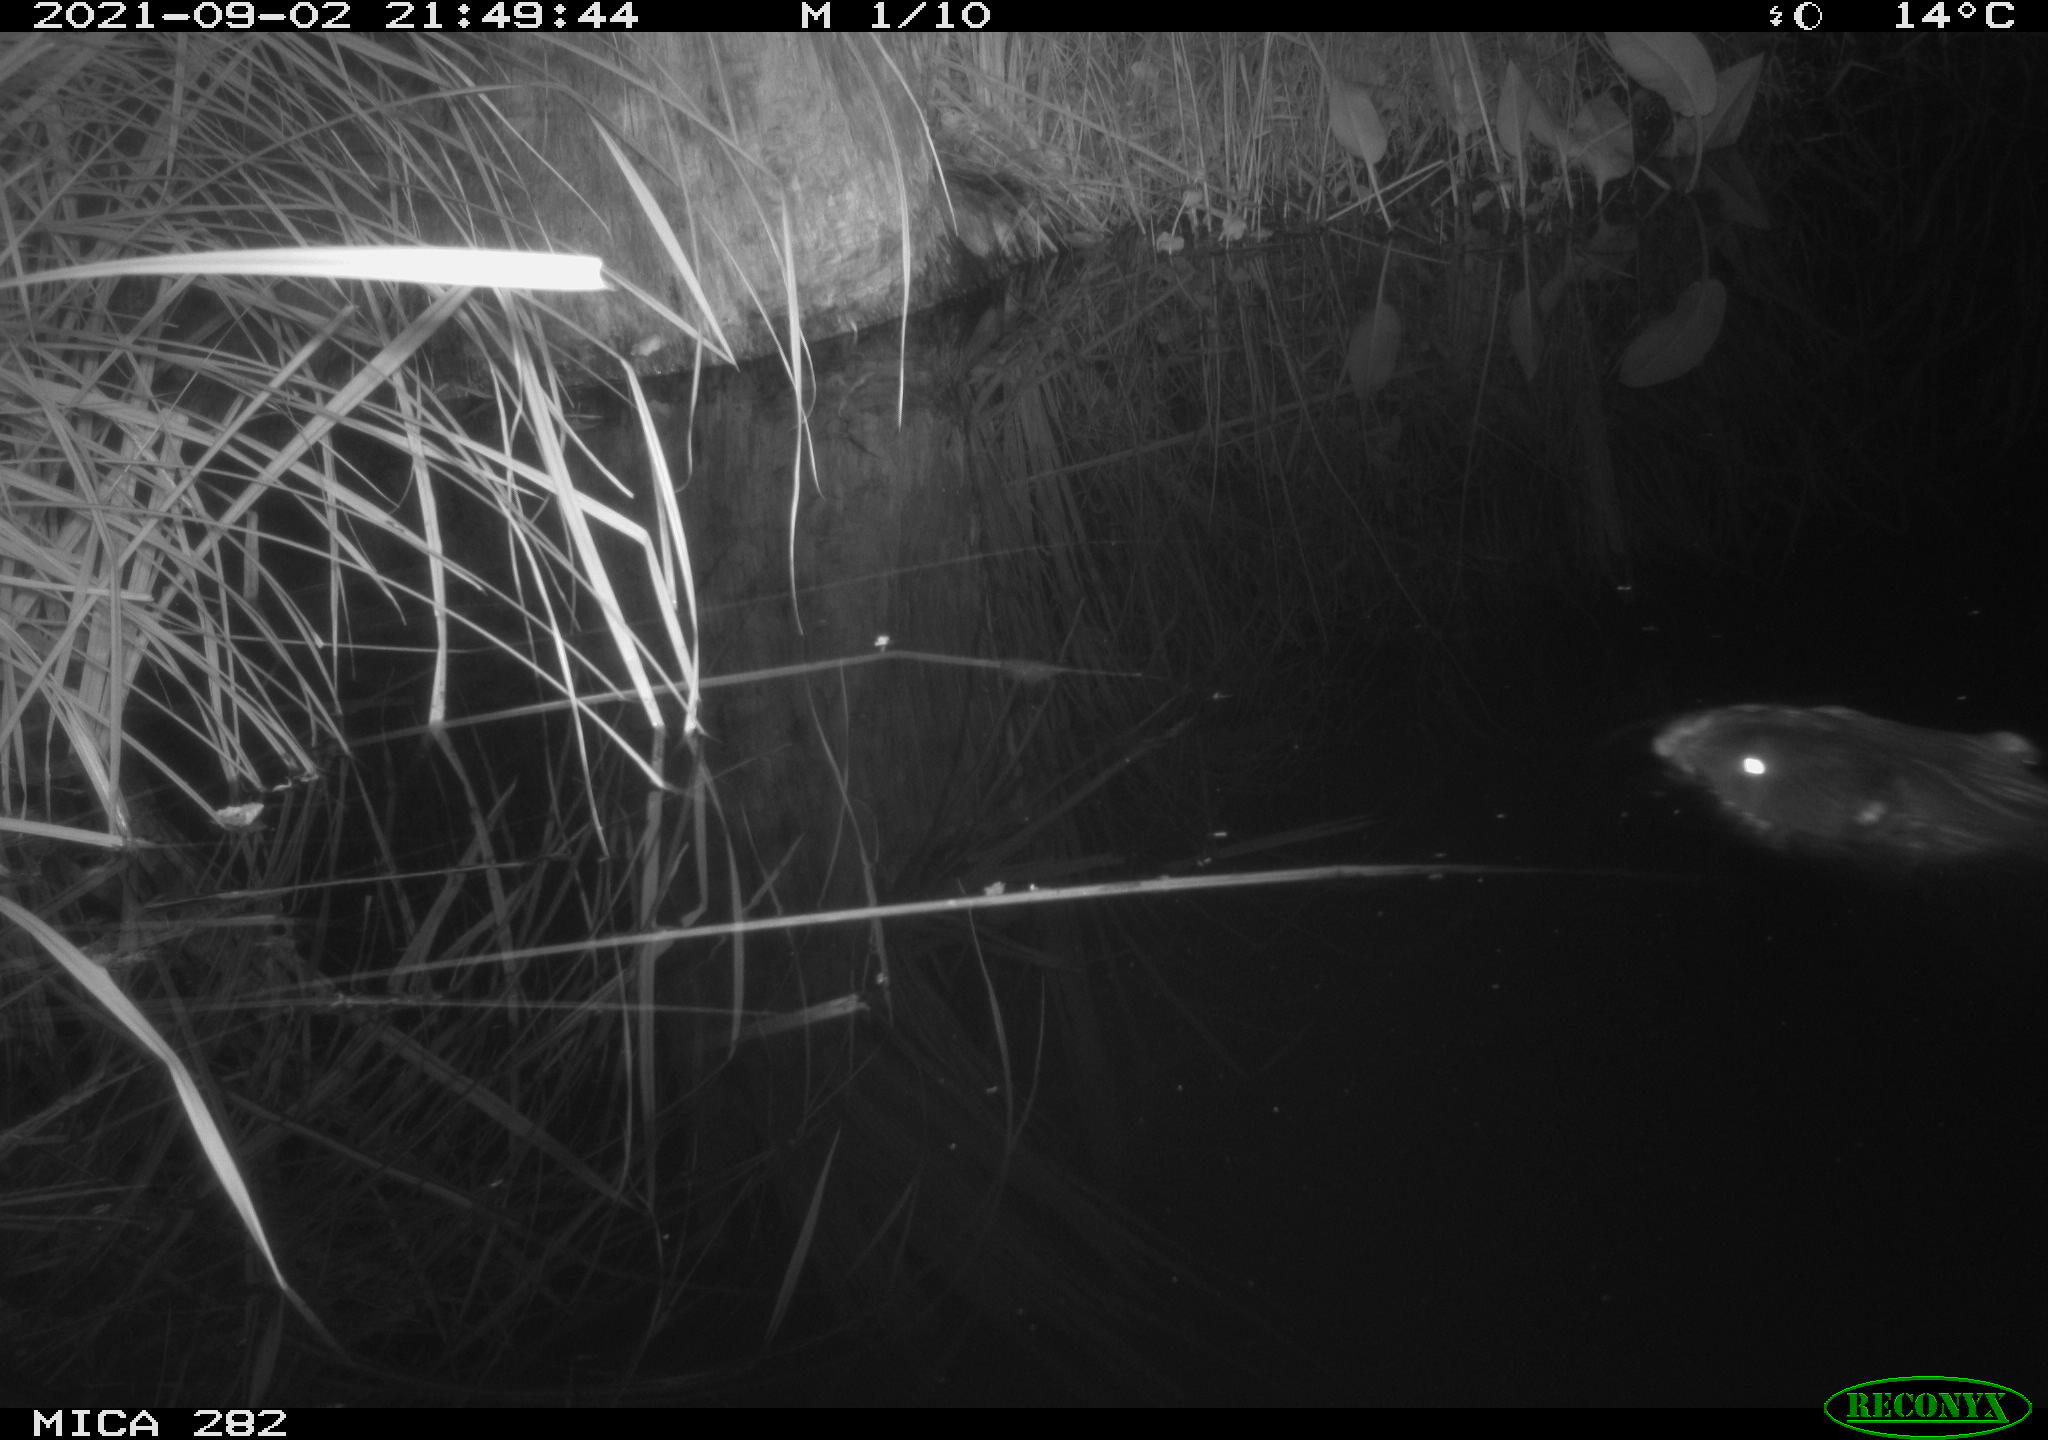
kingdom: Animalia
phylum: Chordata
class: Mammalia
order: Rodentia
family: Castoridae
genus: Castor
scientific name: Castor fiber
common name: Eurasian beaver
